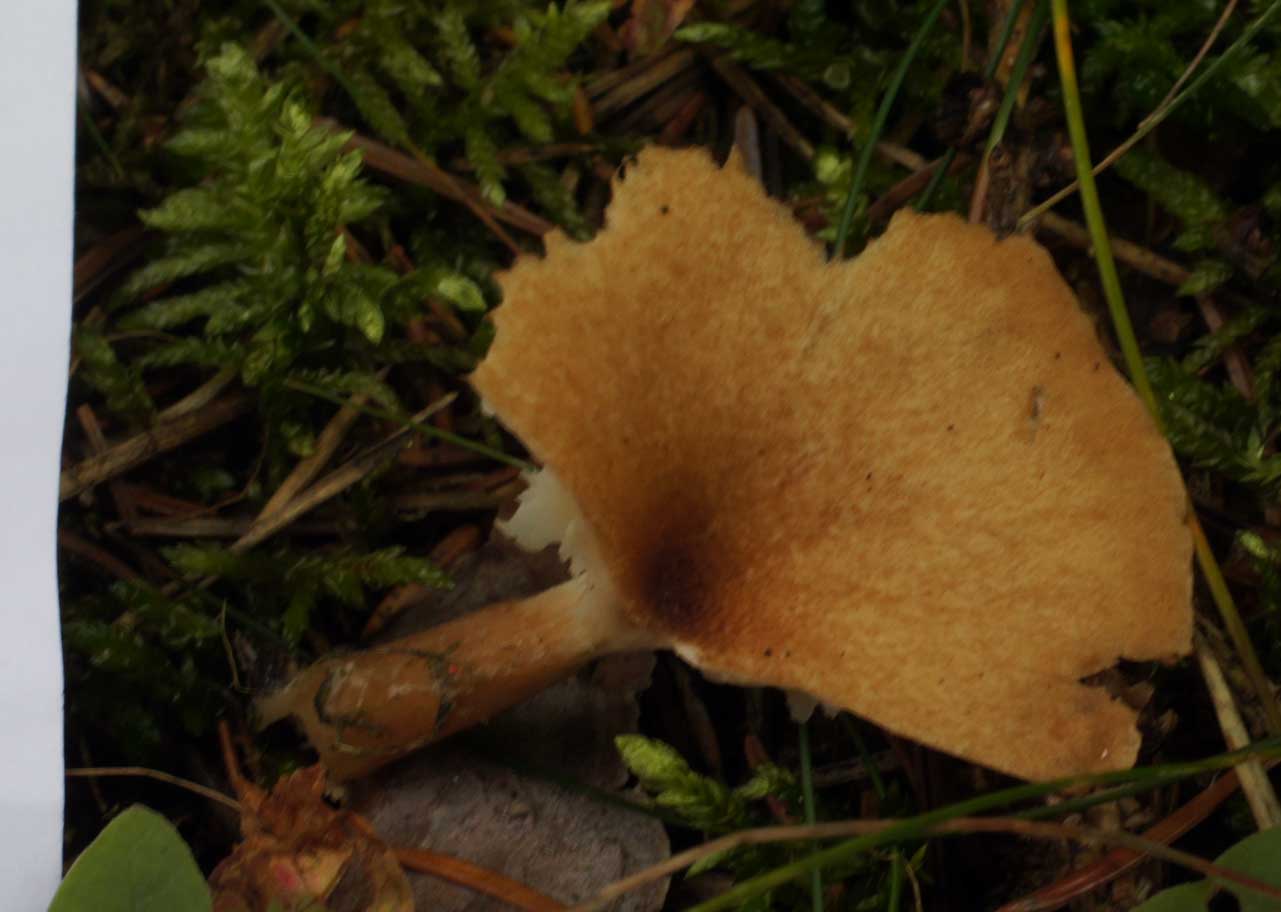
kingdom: Fungi
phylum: Basidiomycota
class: Agaricomycetes
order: Agaricales
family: Tricholomataceae
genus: Infundibulicybe
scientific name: Infundibulicybe squamulosa
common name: småskællet tragthat
